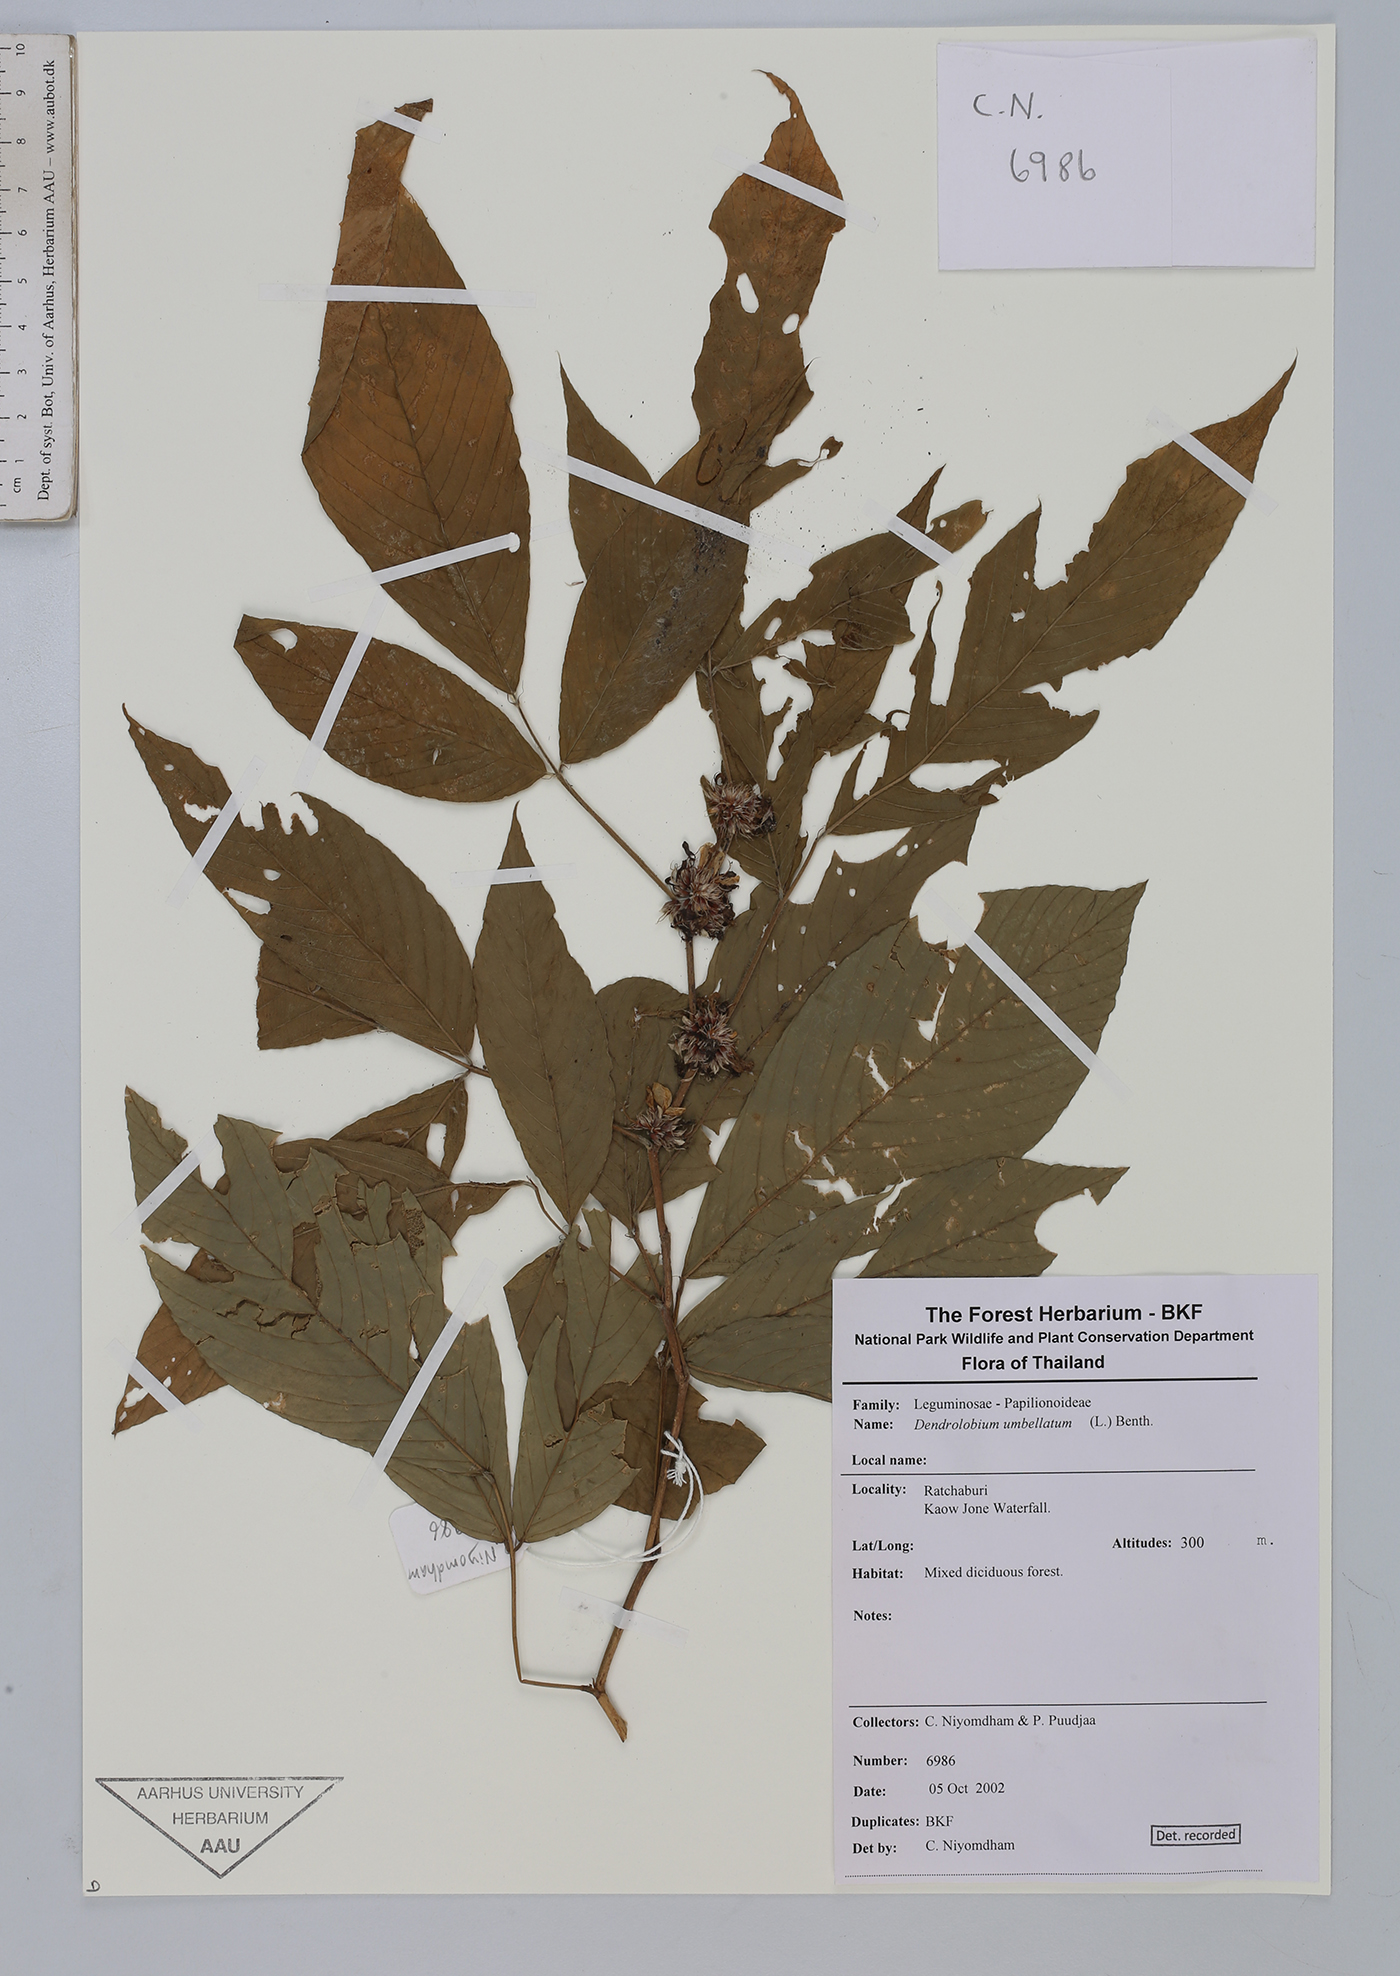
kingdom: Plantae
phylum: Tracheophyta
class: Magnoliopsida
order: Fabales
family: Fabaceae
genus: Dendrolobium
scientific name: Dendrolobium umbellatum
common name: Horsebush
